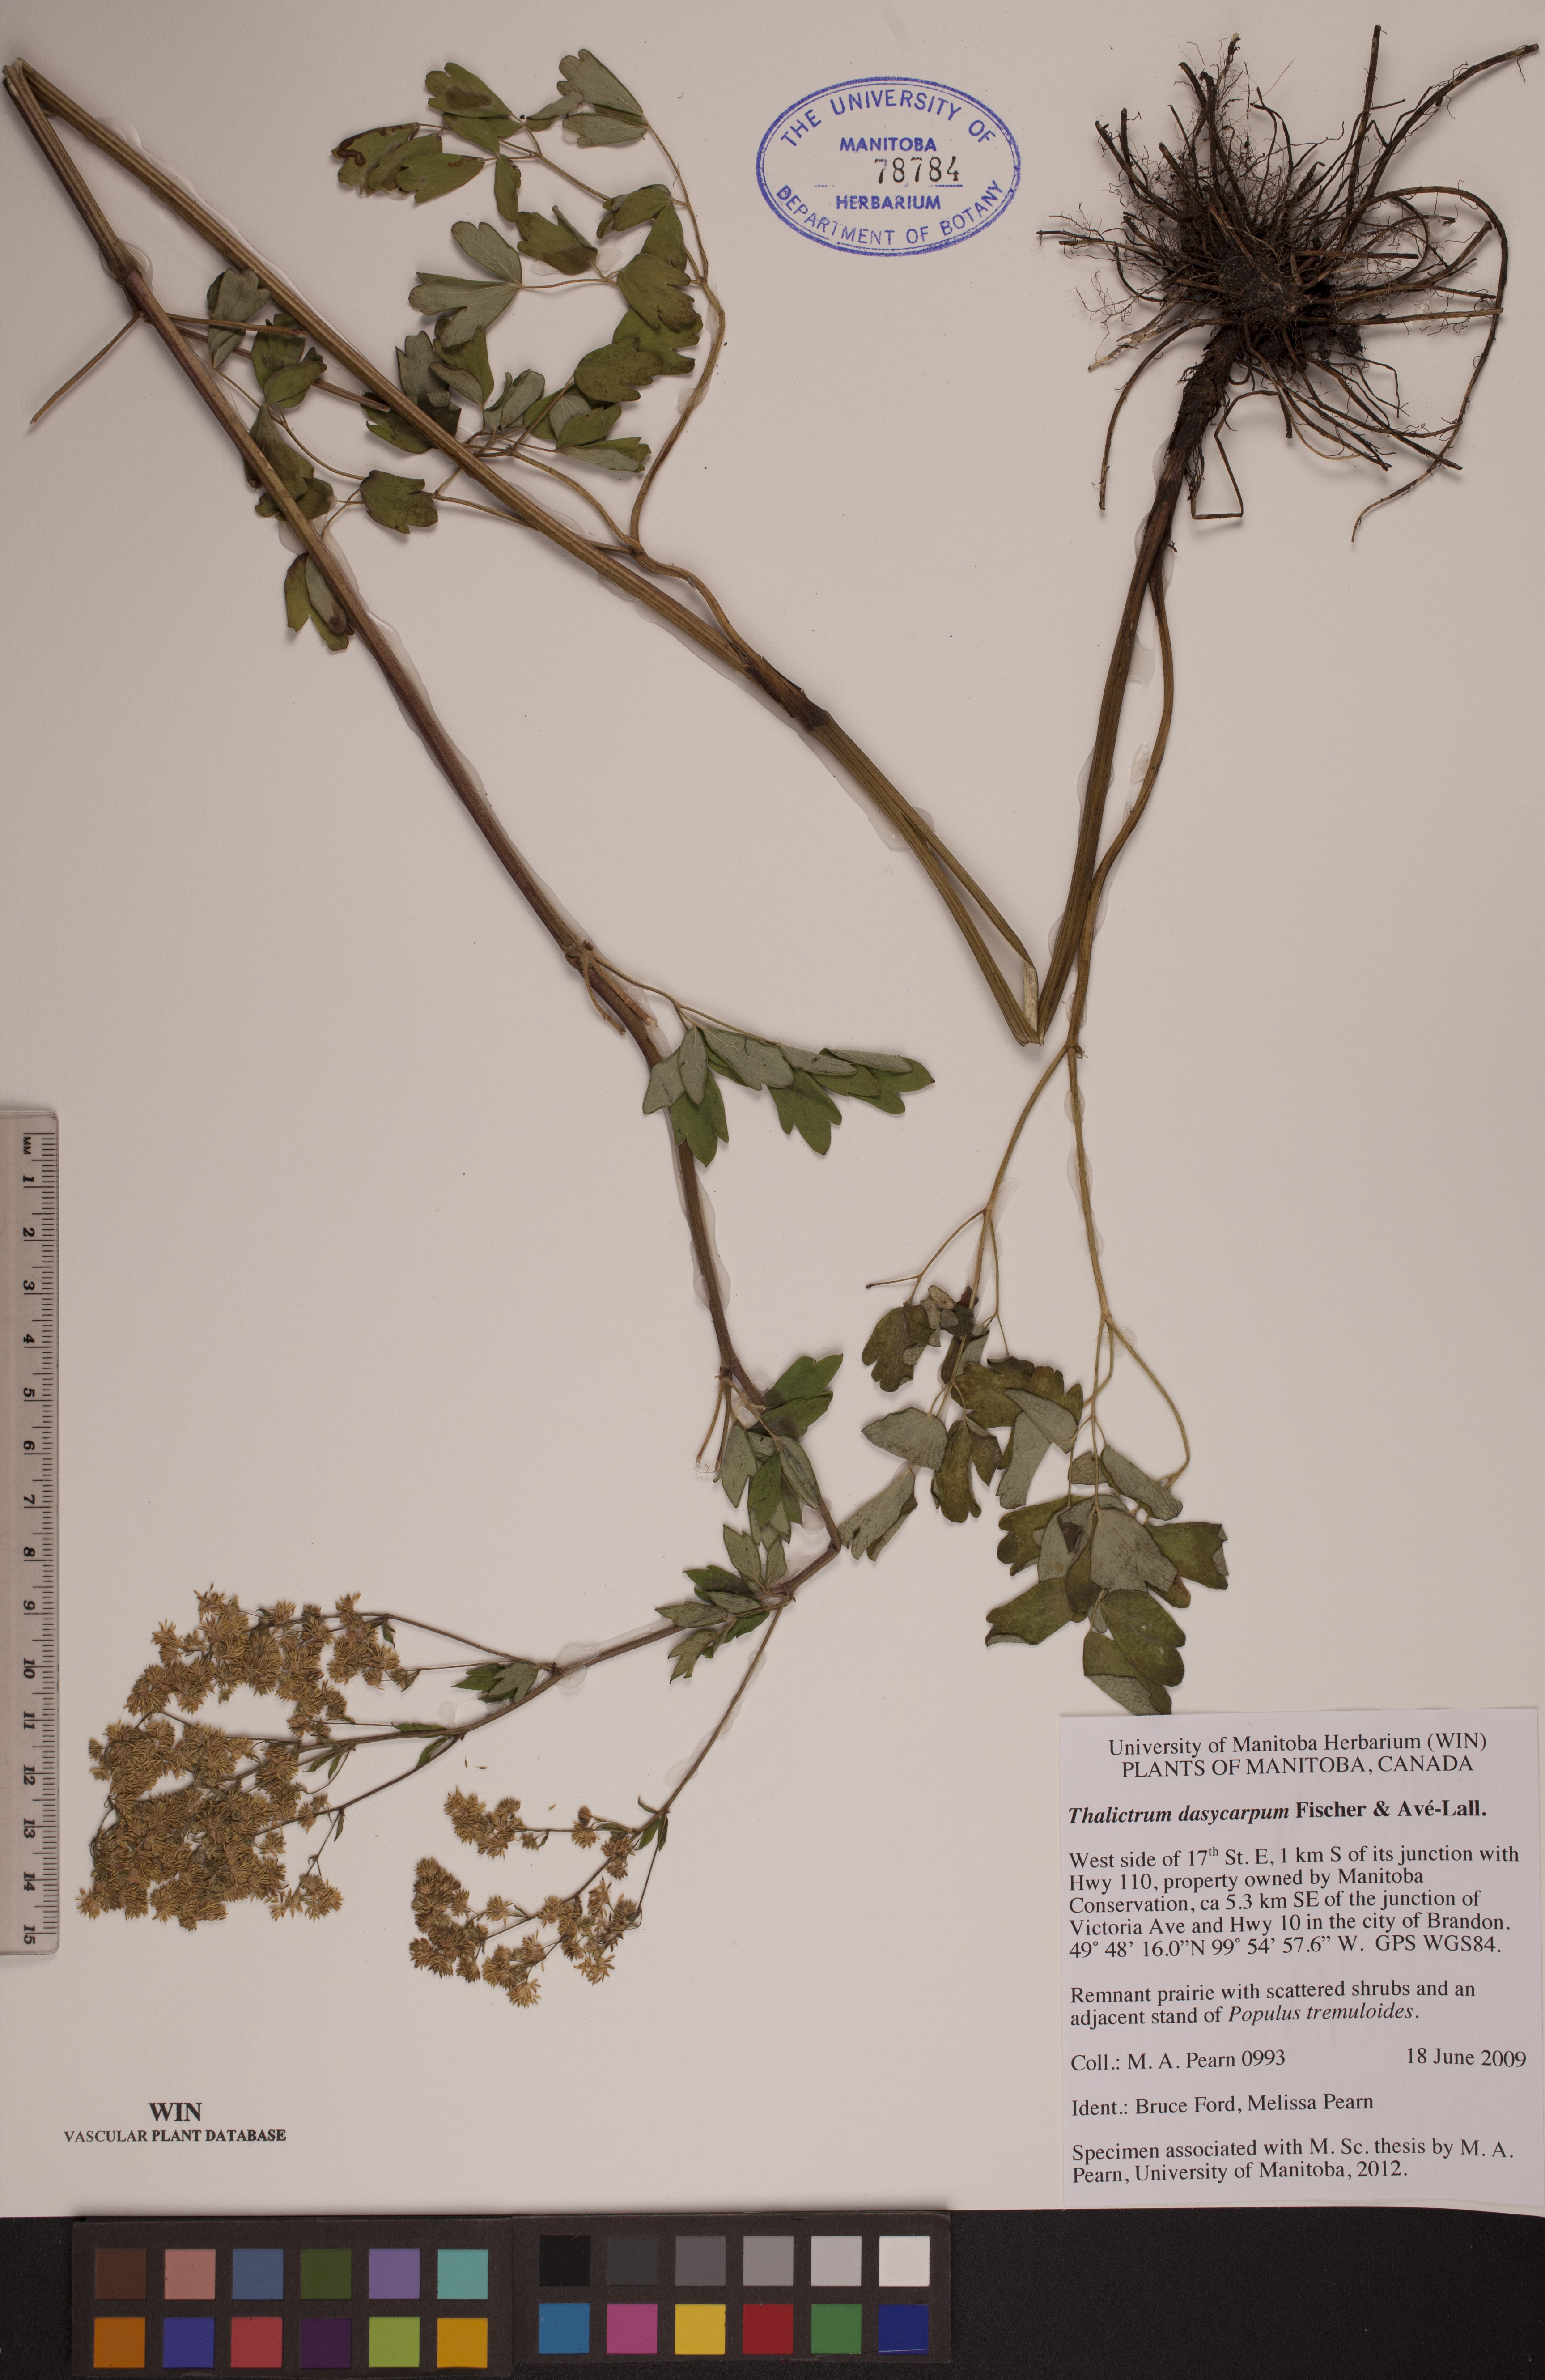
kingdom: Plantae
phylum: Tracheophyta
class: Magnoliopsida
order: Ranunculales
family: Ranunculaceae
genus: Thalictrum
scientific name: Thalictrum dasycarpum
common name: Purple meadow-rue
